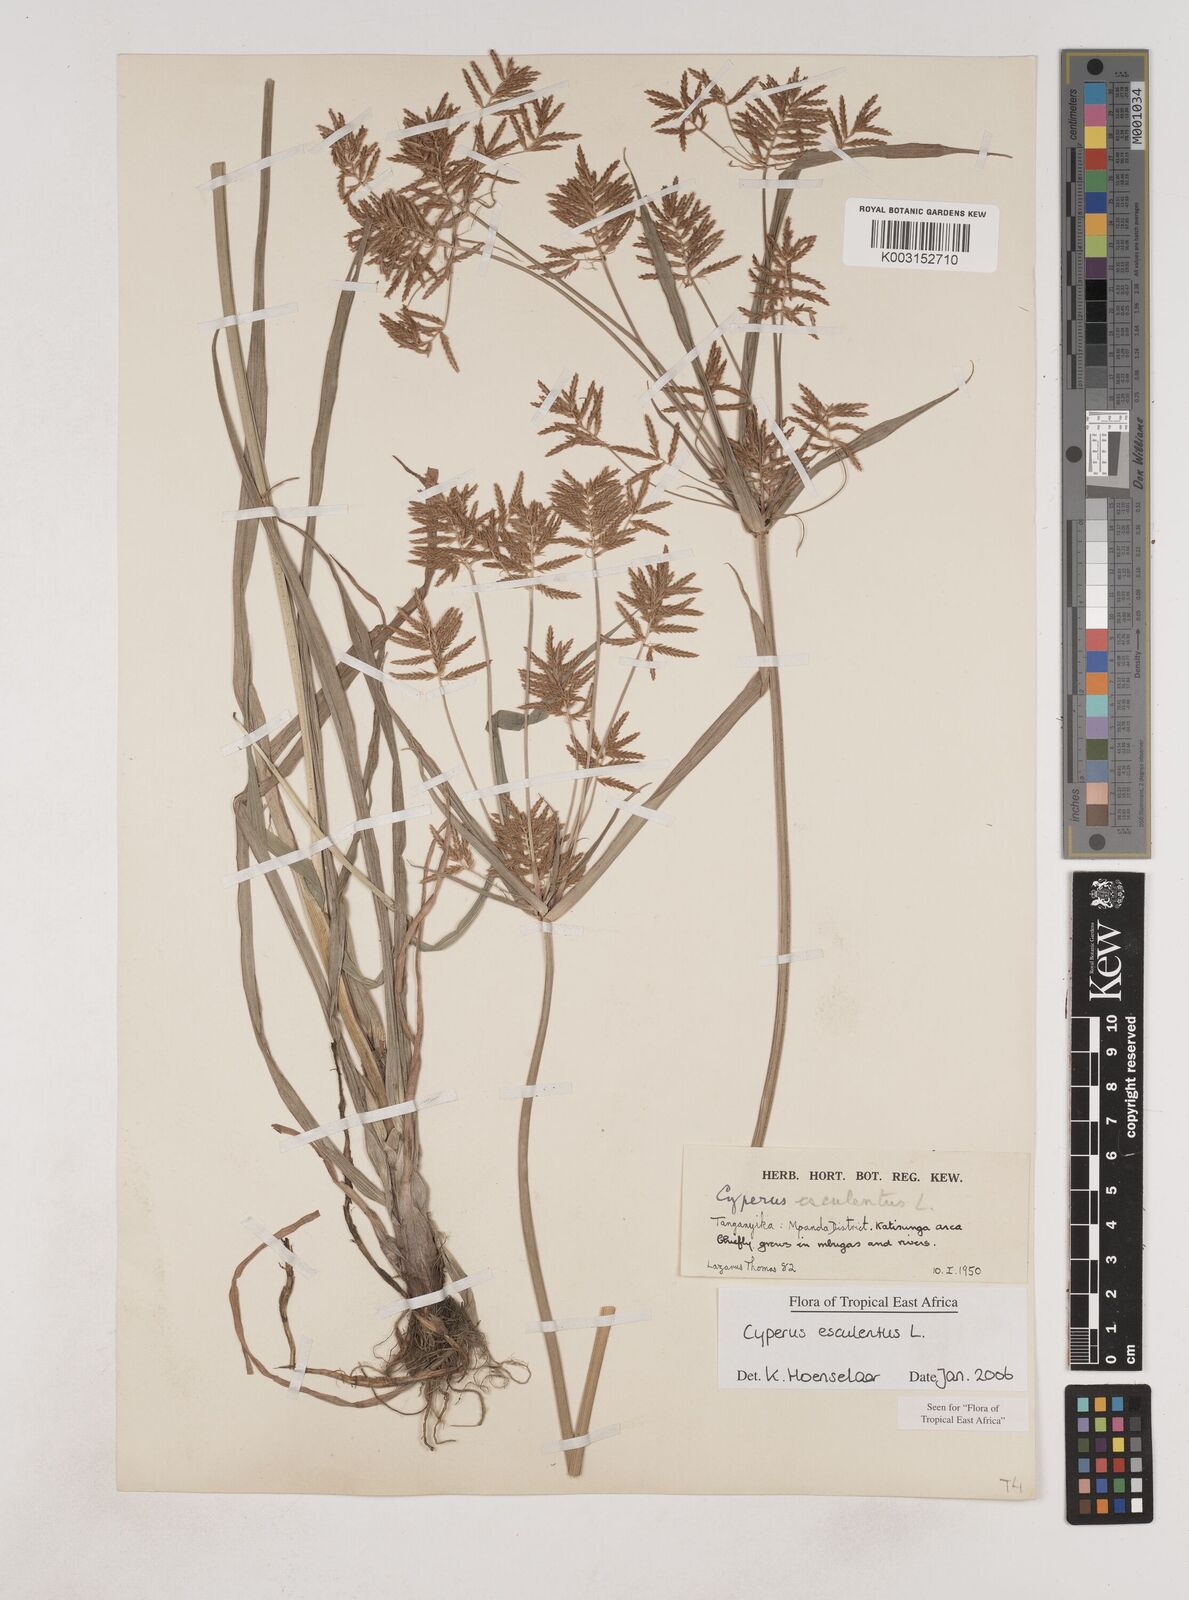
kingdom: Plantae
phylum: Tracheophyta
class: Liliopsida
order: Poales
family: Cyperaceae
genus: Cyperus
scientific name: Cyperus esculentus
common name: Yellow nutsedge
